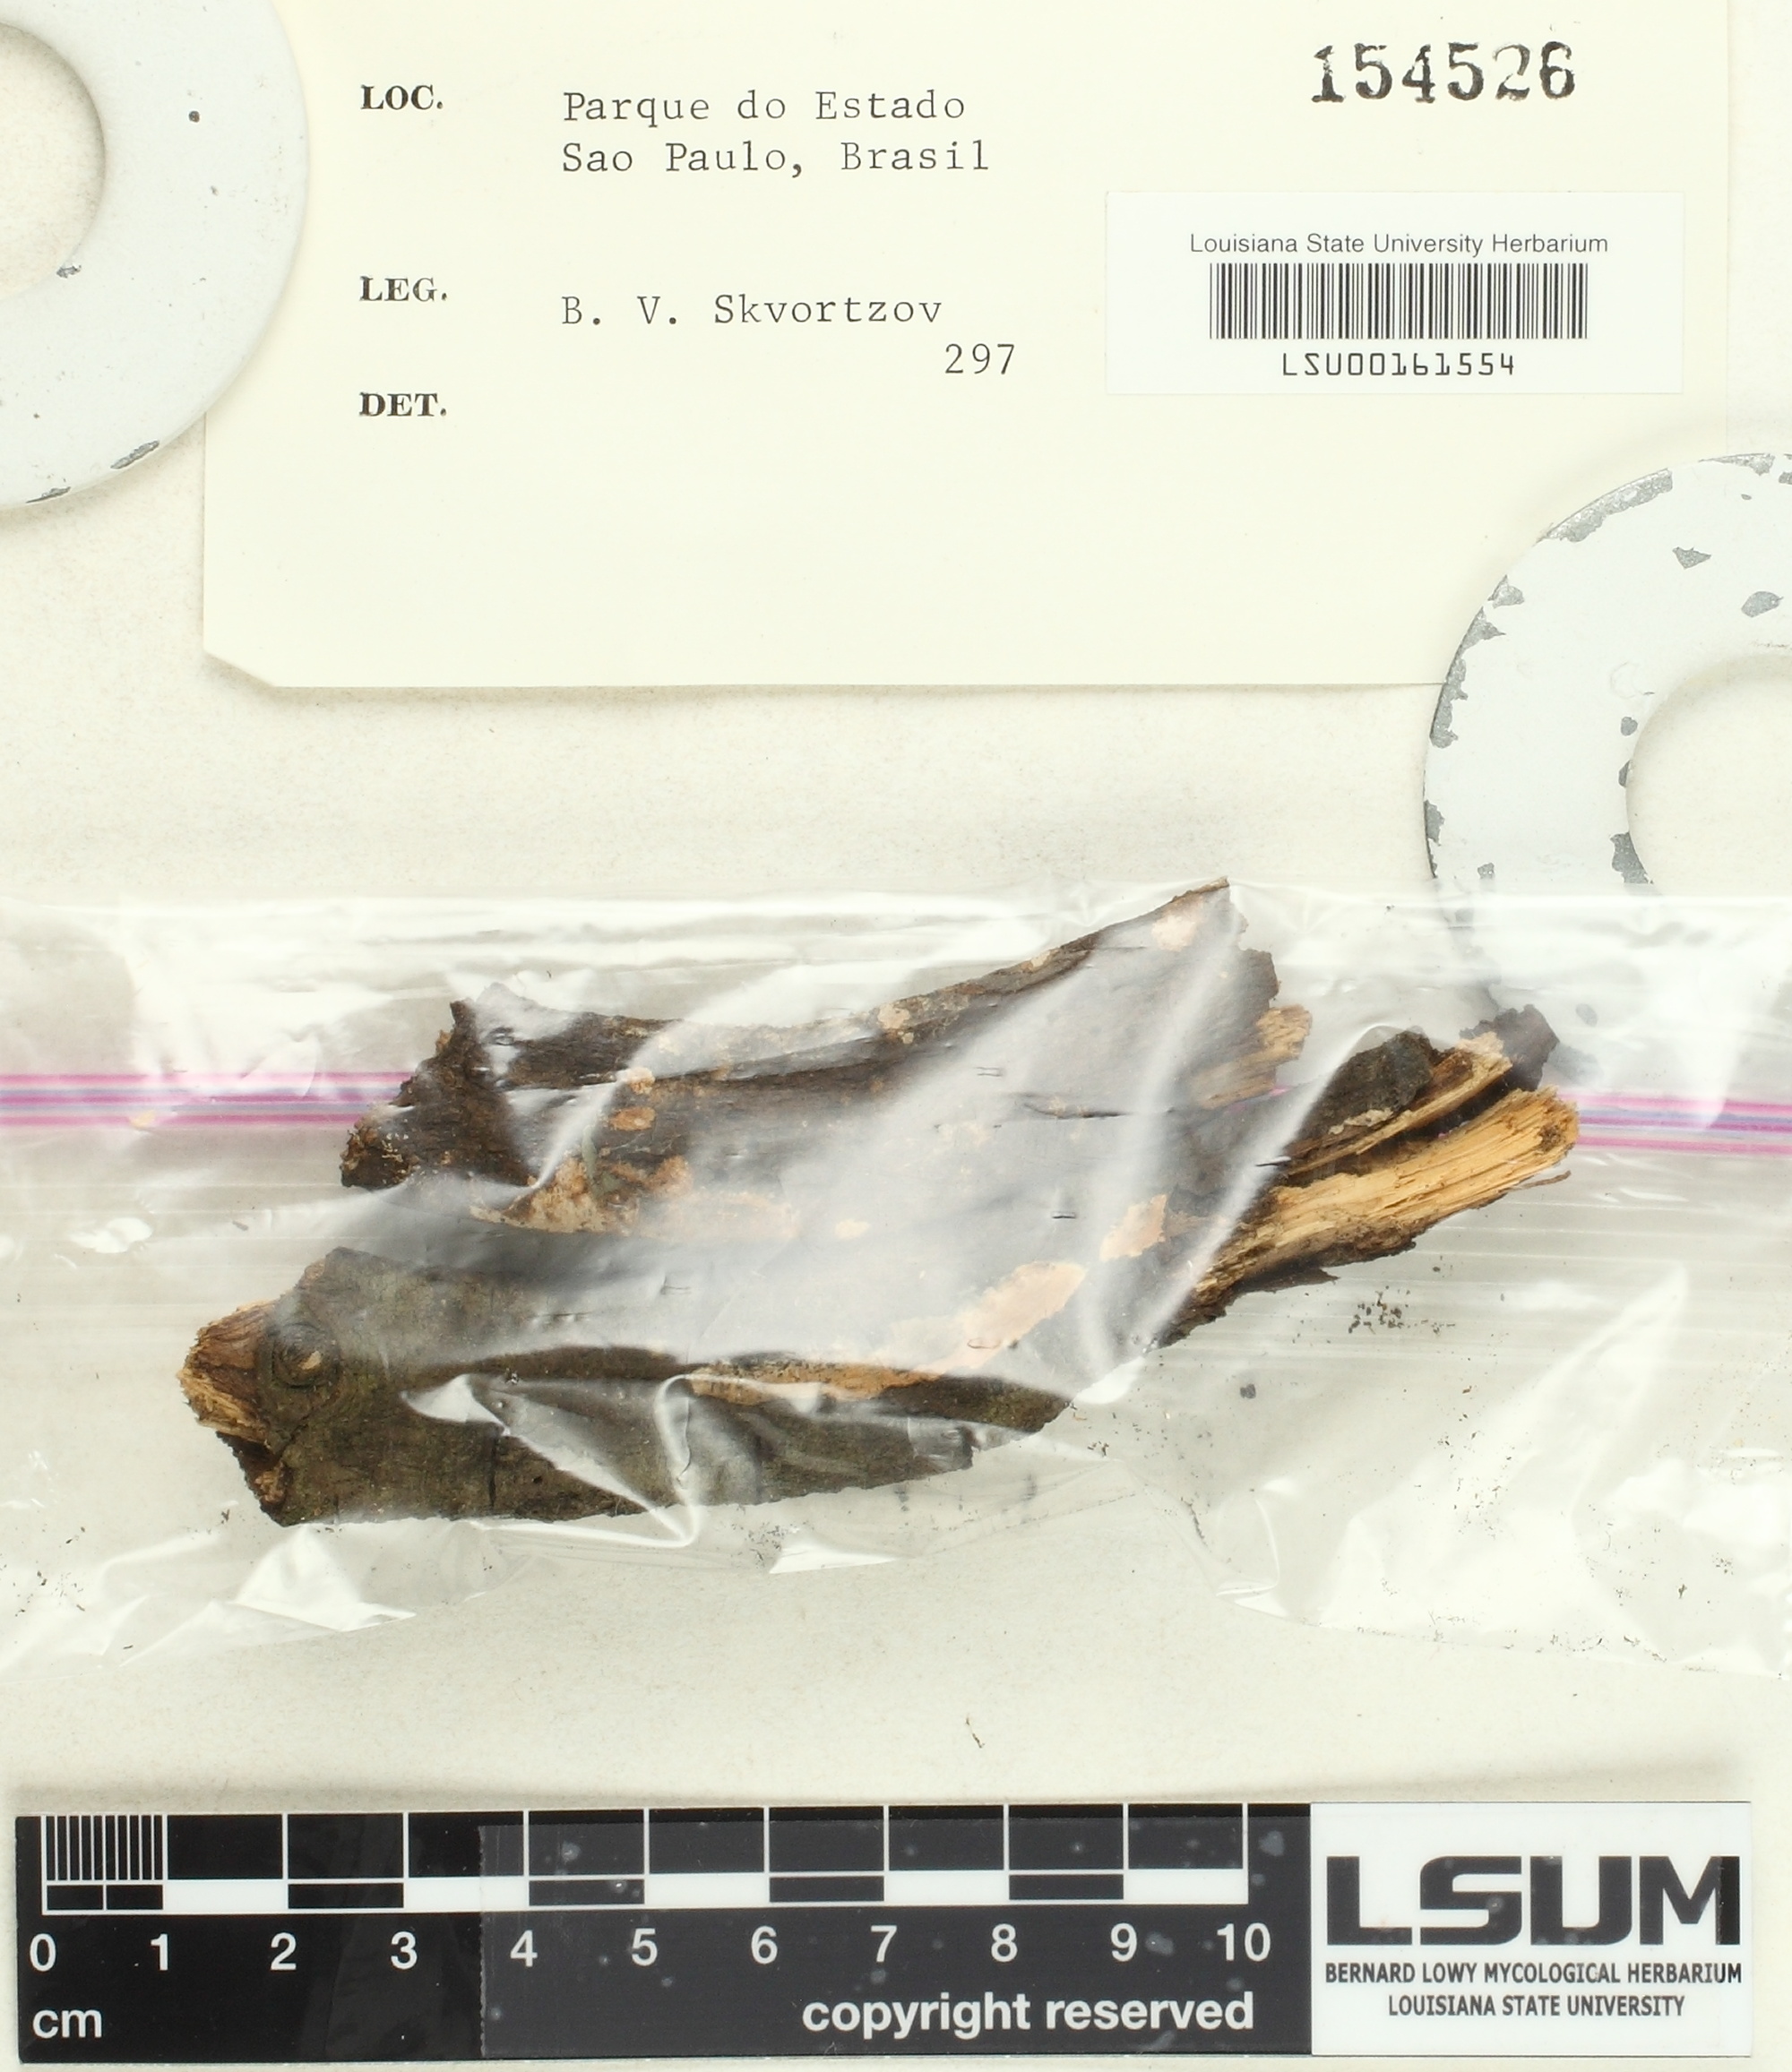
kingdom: Fungi
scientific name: Fungi
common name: Fungi
